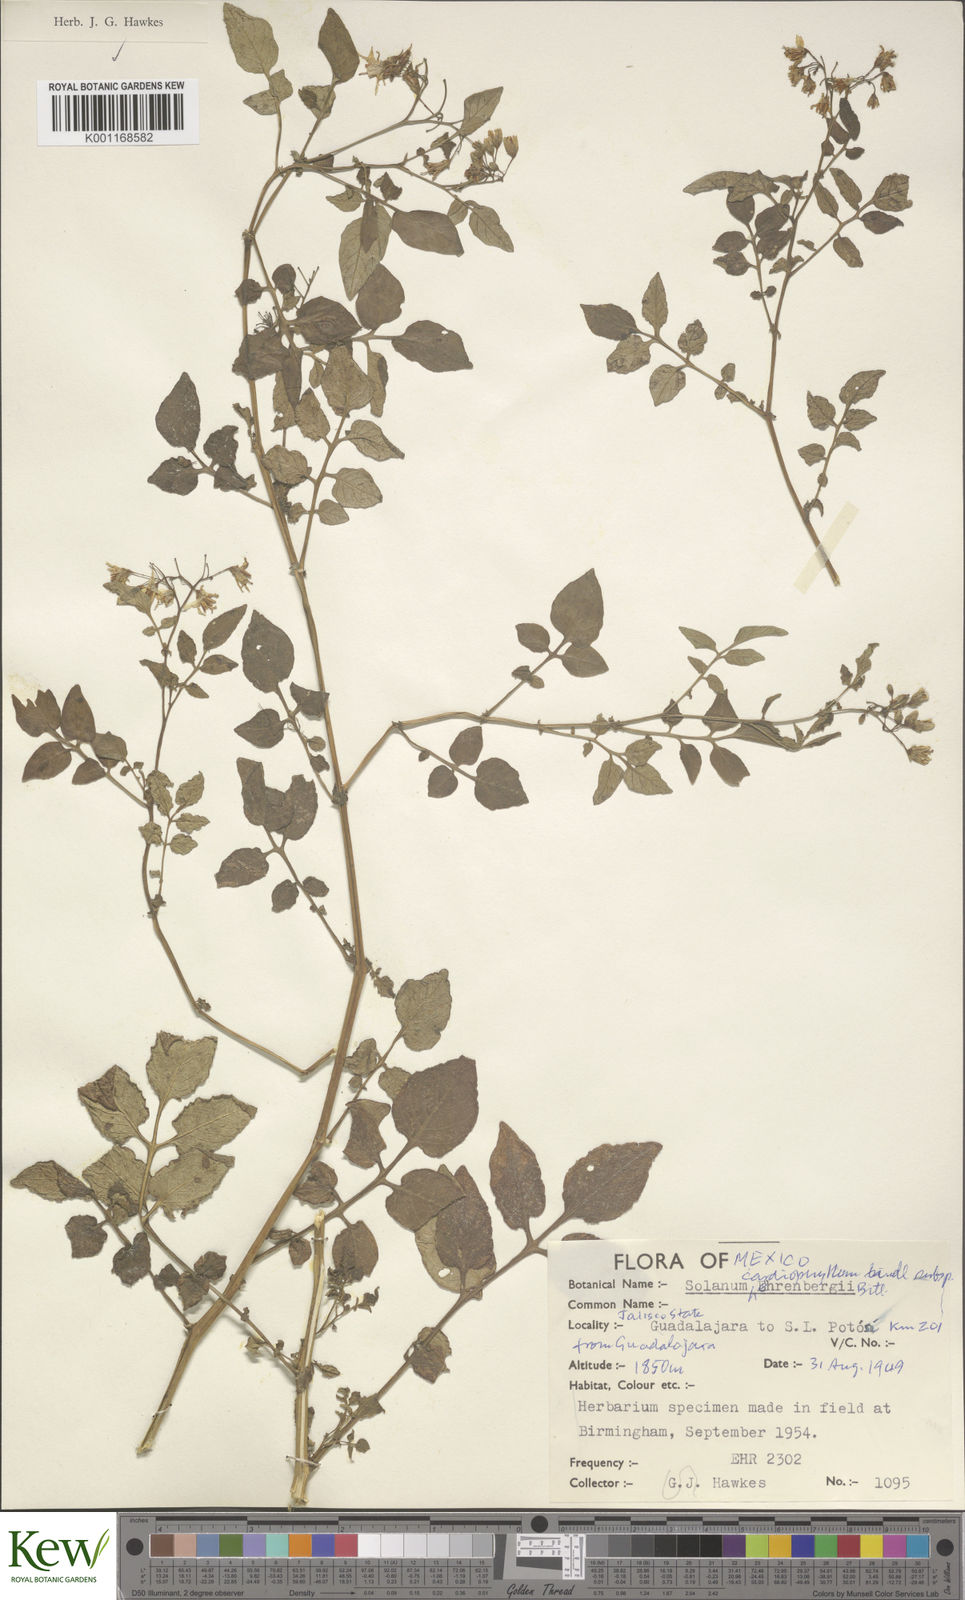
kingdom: Plantae
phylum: Tracheophyta
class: Magnoliopsida
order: Solanales
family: Solanaceae
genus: Solanum
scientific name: Solanum cardiophyllum
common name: Heartleaf horsenettle
